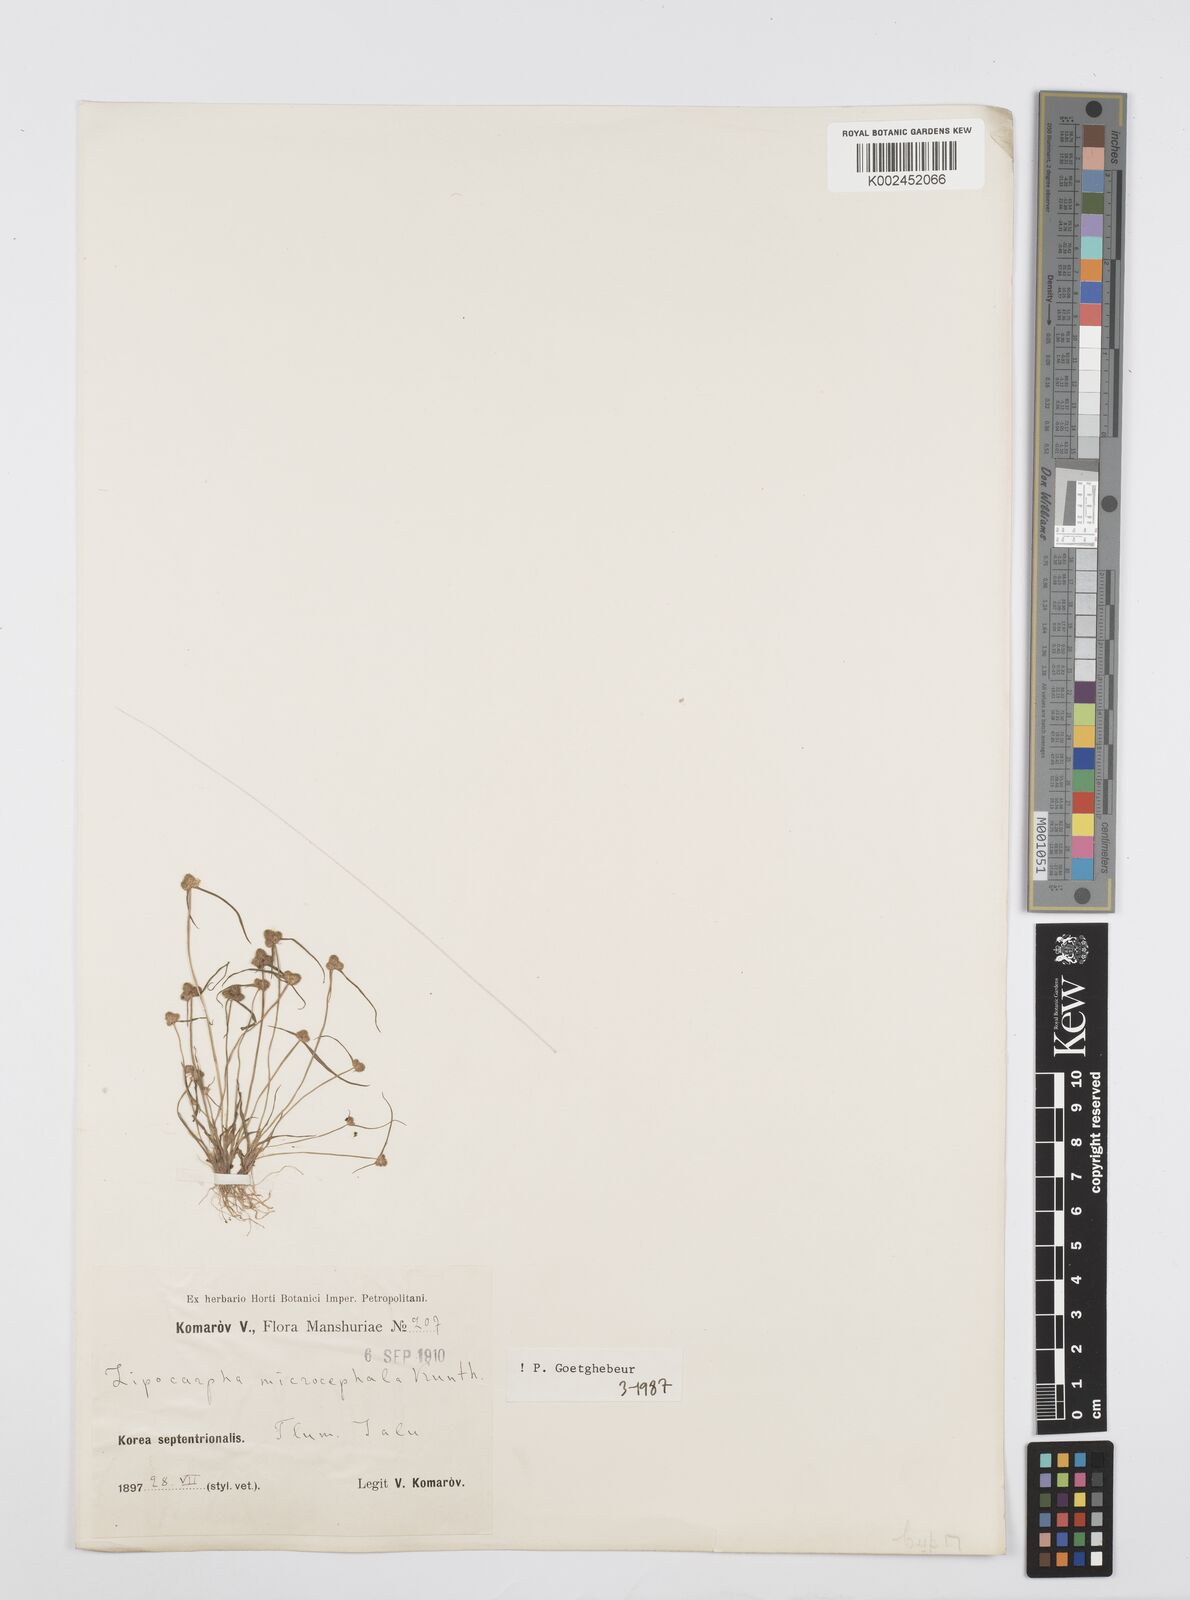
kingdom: Plantae
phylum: Tracheophyta
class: Liliopsida
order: Poales
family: Cyperaceae
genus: Cyperus
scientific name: Cyperus microcephalus
